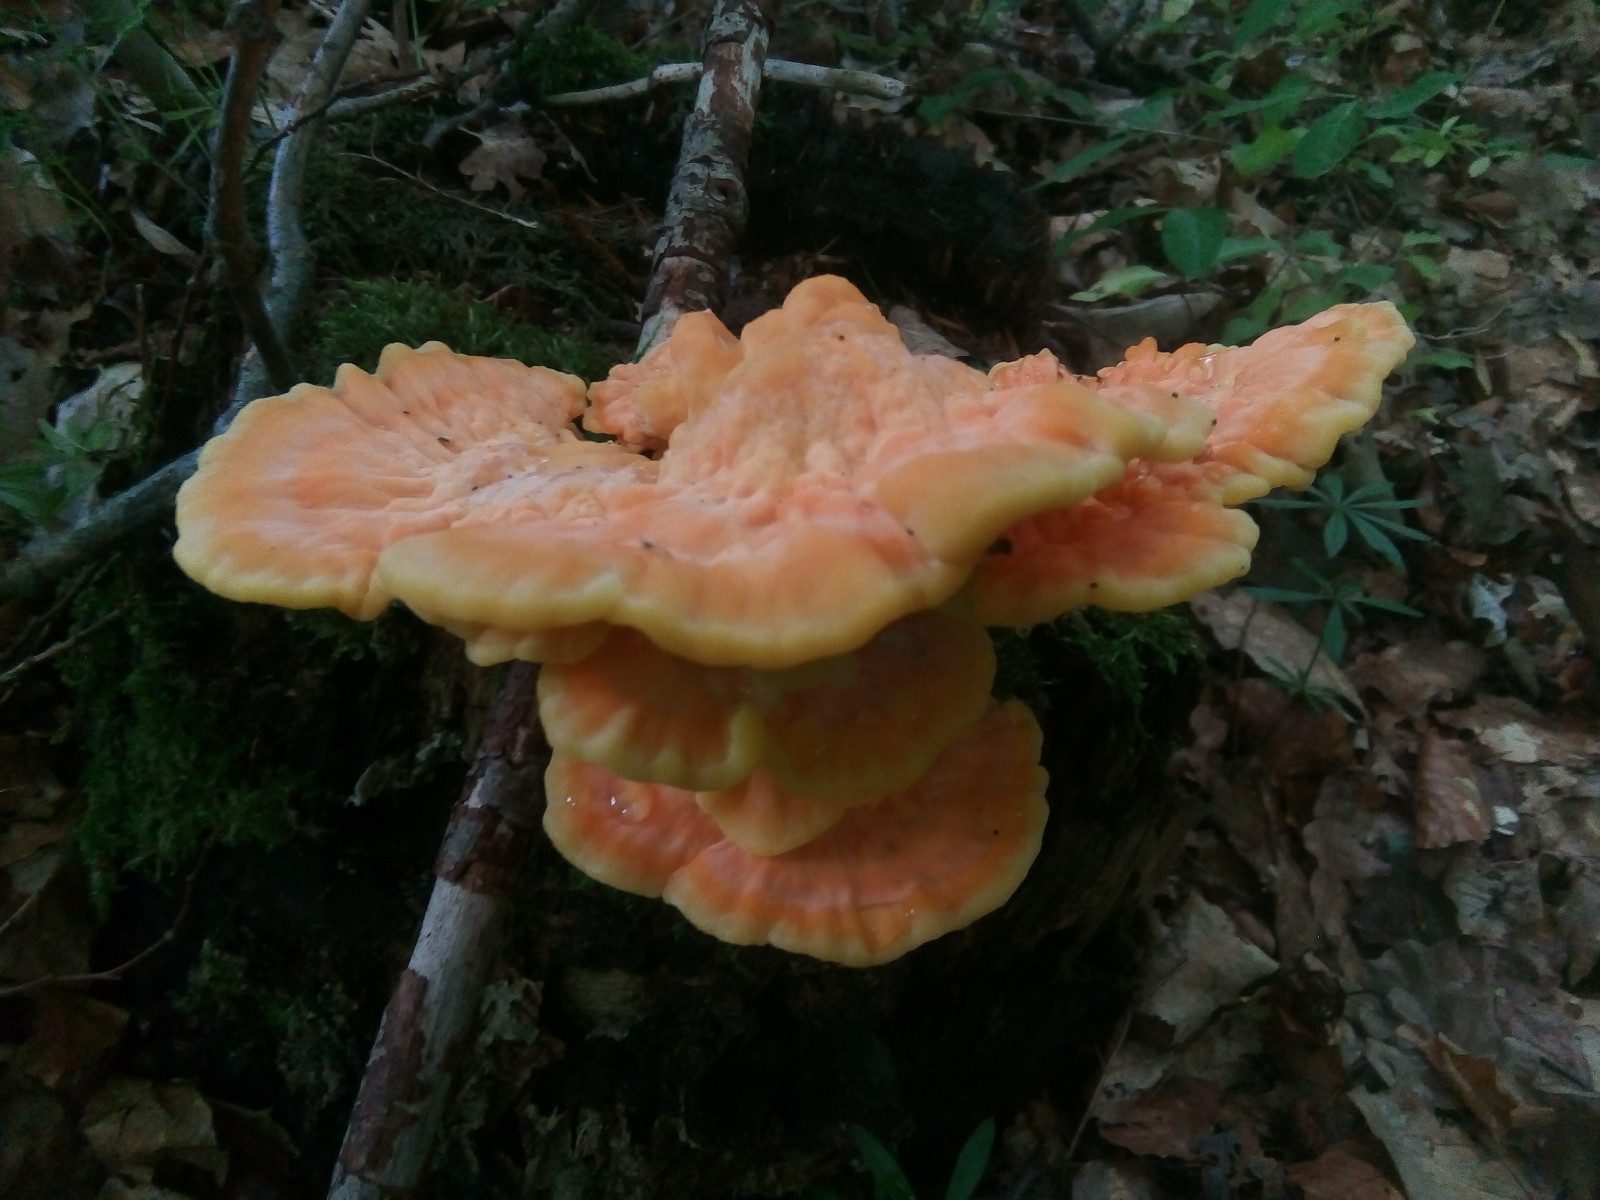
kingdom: Fungi
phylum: Basidiomycota
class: Agaricomycetes
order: Polyporales
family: Laetiporaceae
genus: Laetiporus
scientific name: Laetiporus sulphureus
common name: svovlporesvamp
